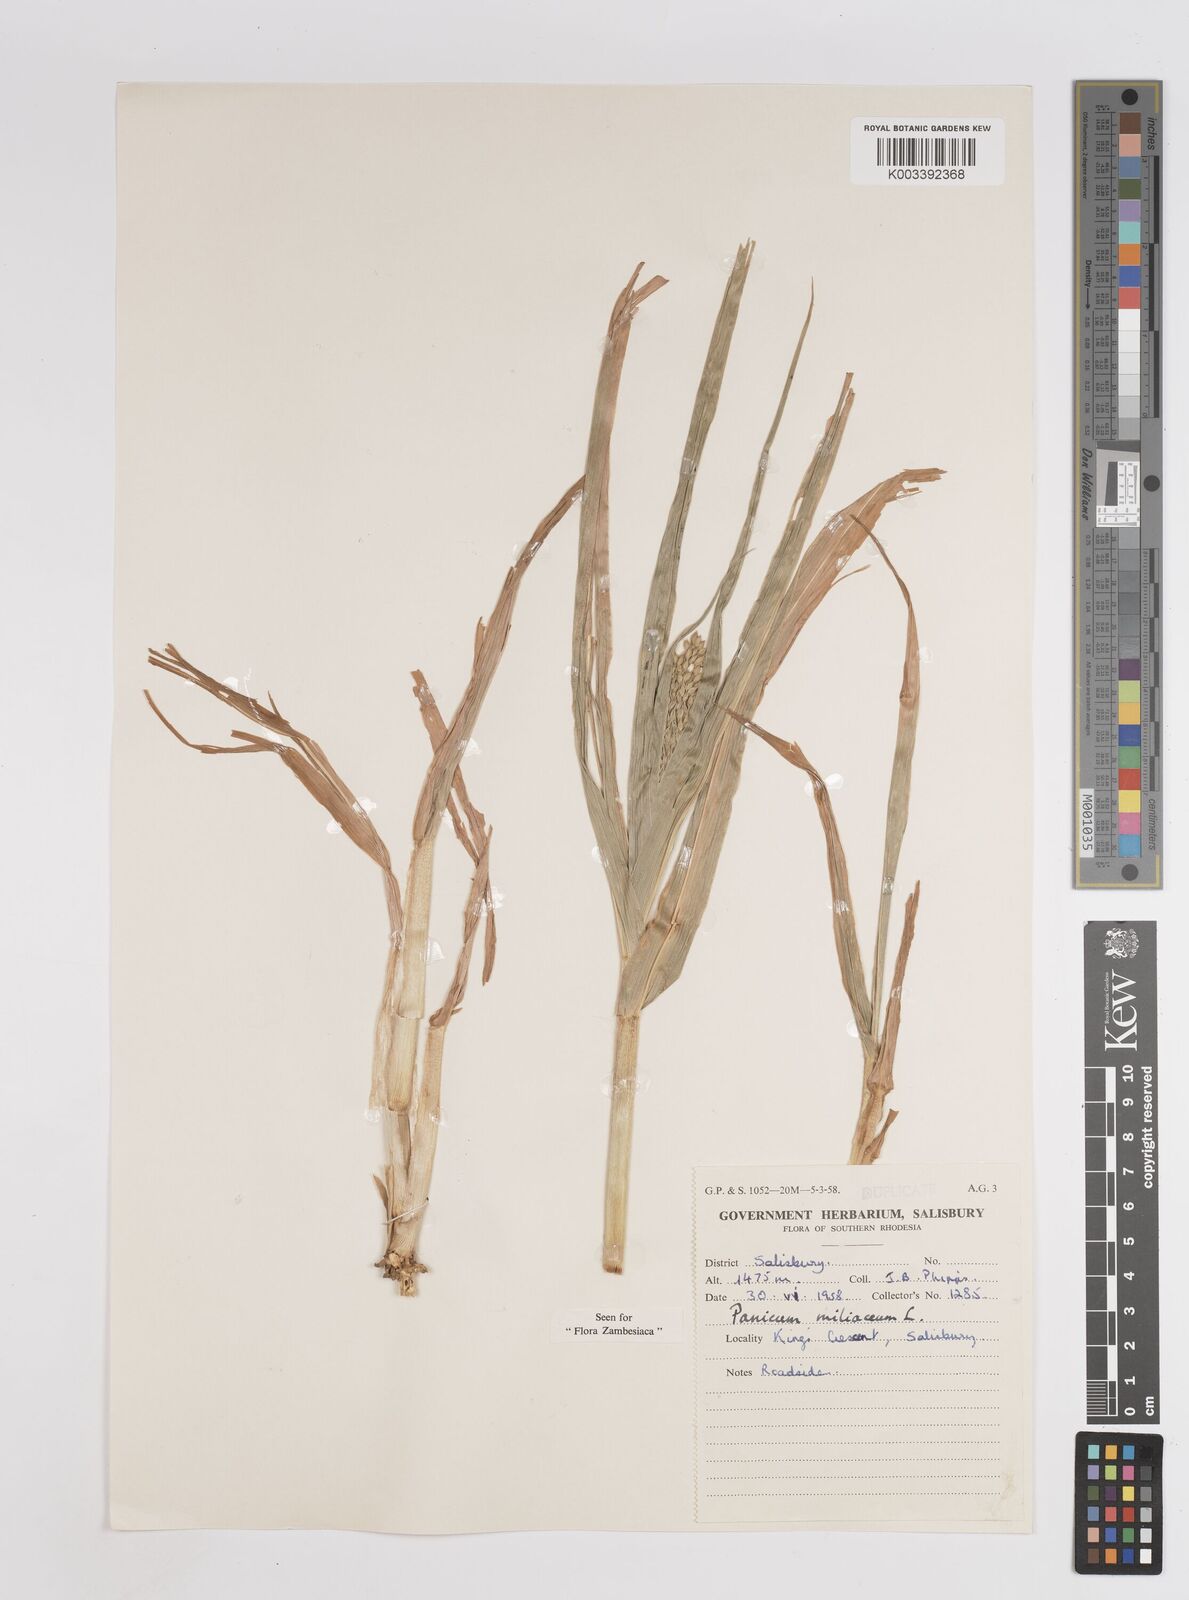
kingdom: Plantae
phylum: Tracheophyta
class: Liliopsida
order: Poales
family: Poaceae
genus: Panicum
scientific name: Panicum miliaceum
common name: Common millet
